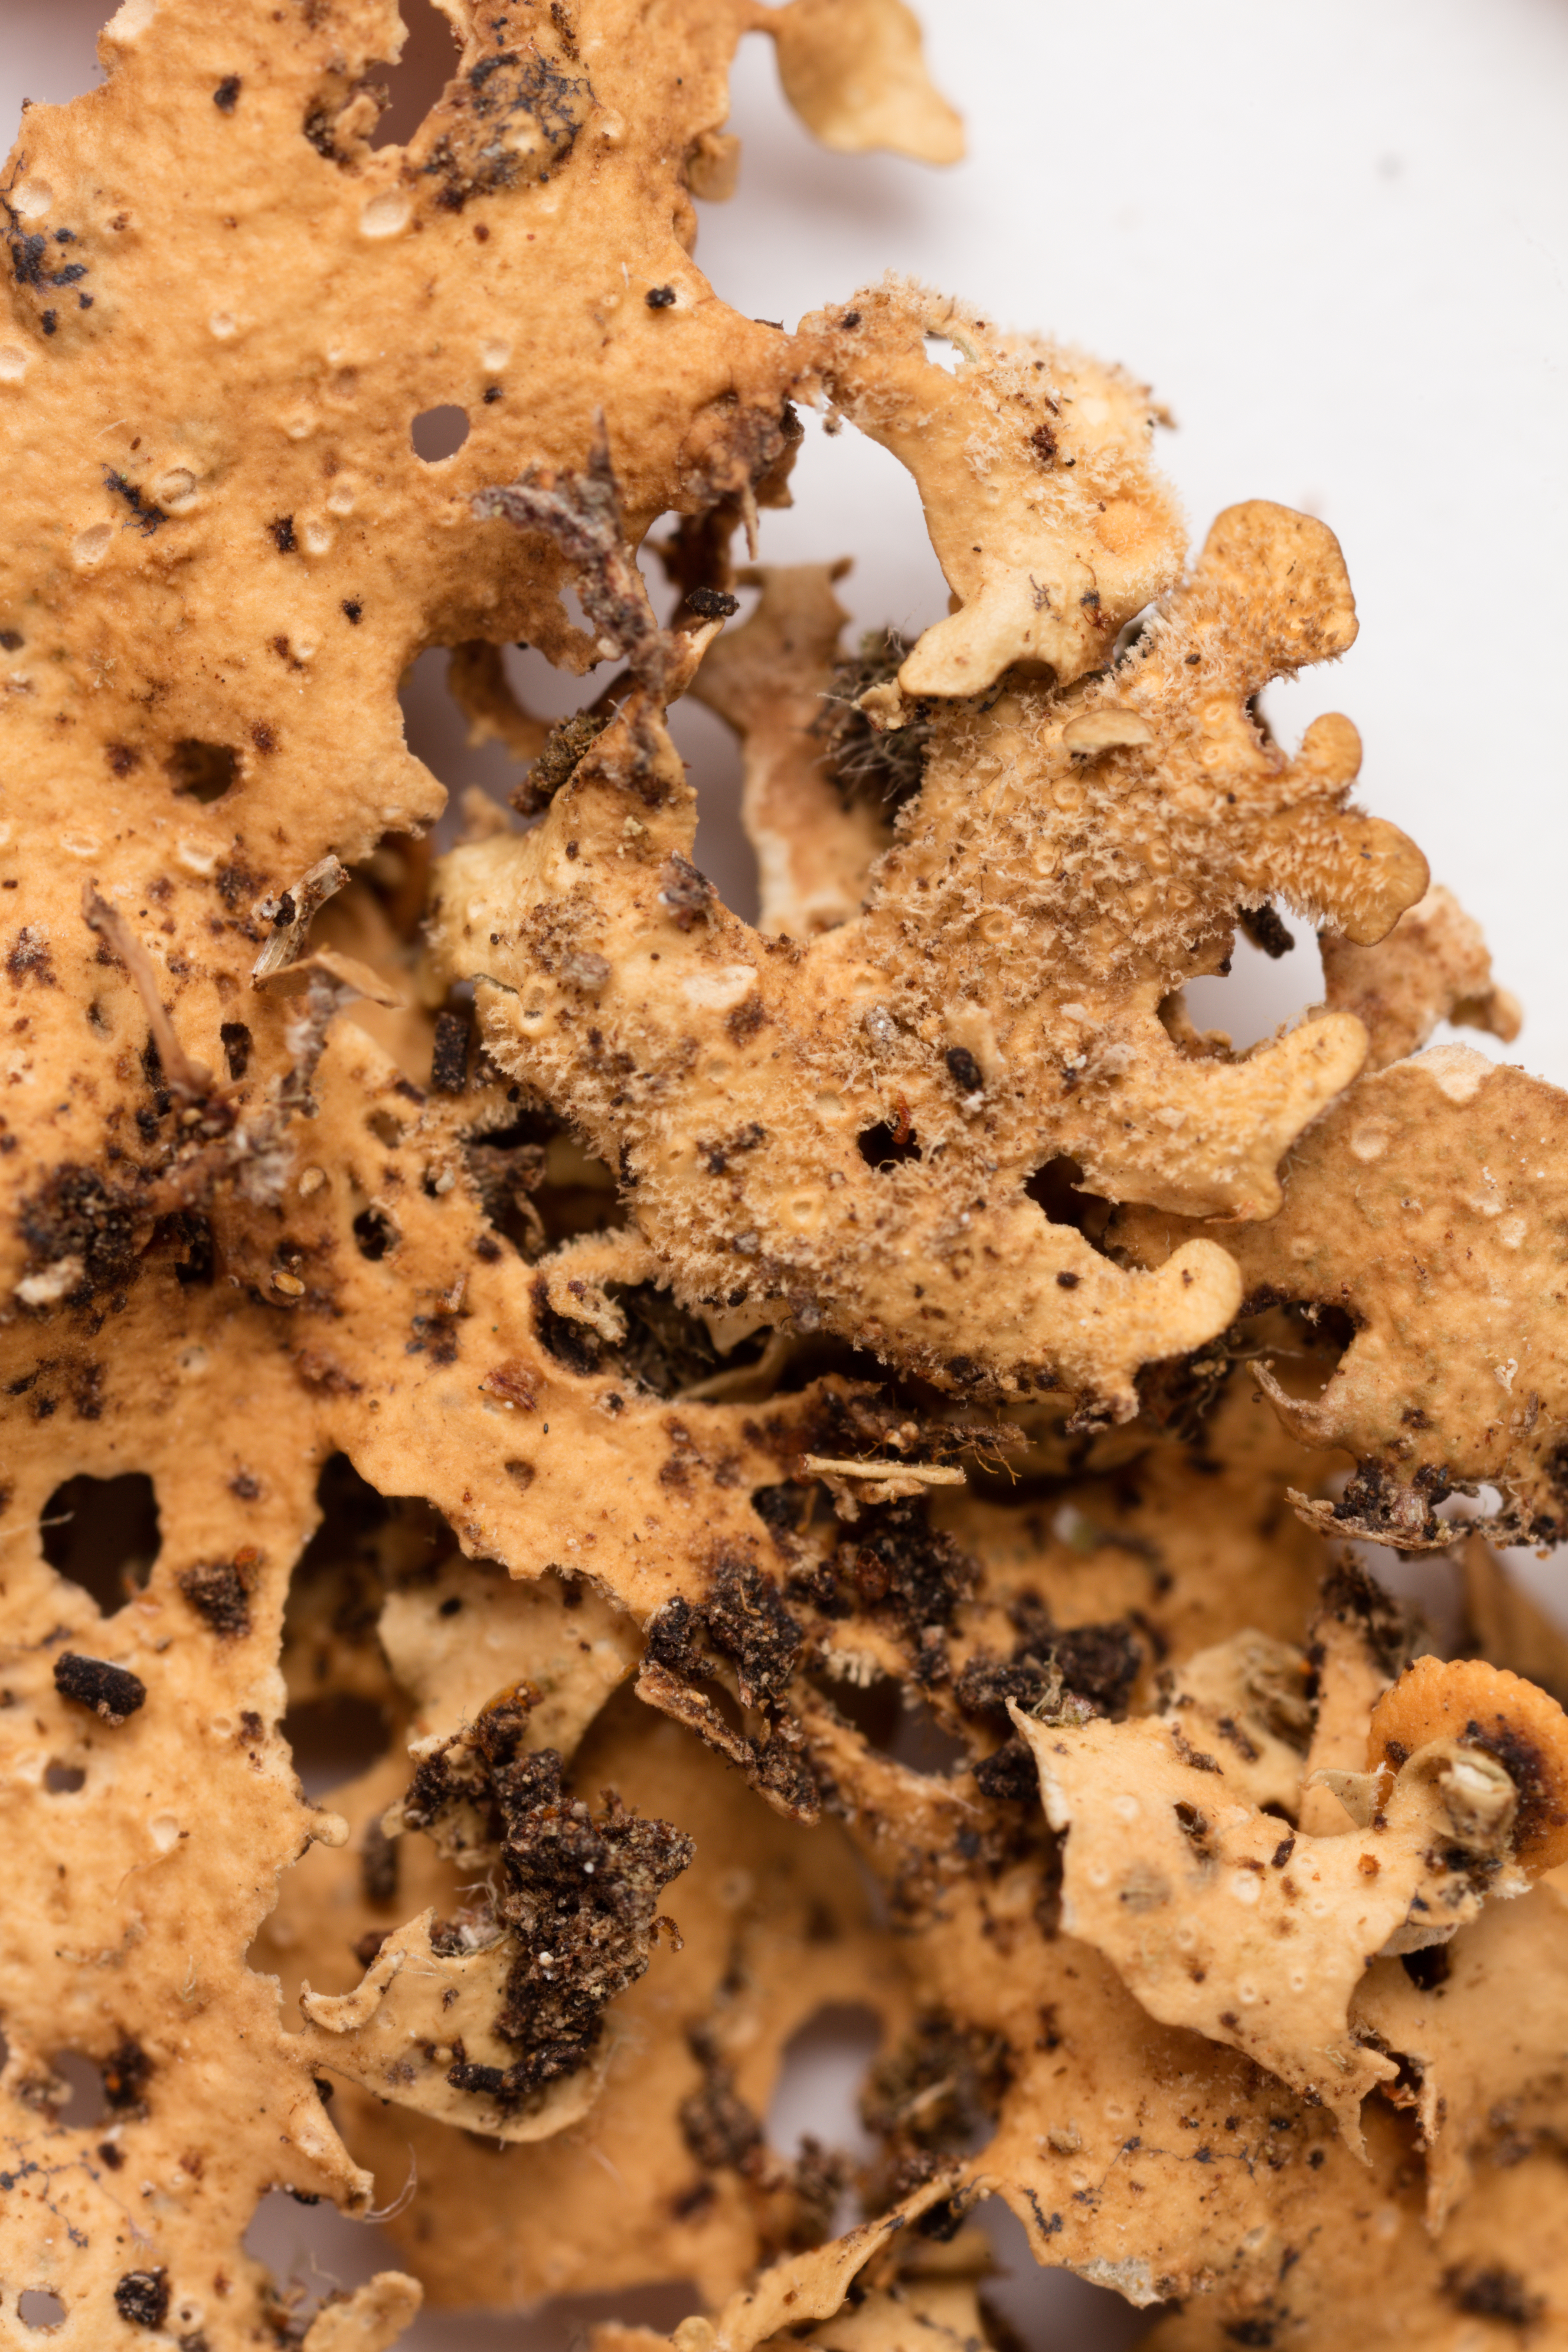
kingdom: Fungi
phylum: Ascomycota
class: Lecanoromycetes
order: Peltigerales
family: Lobariaceae
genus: Sticta
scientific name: Sticta subcaperata
